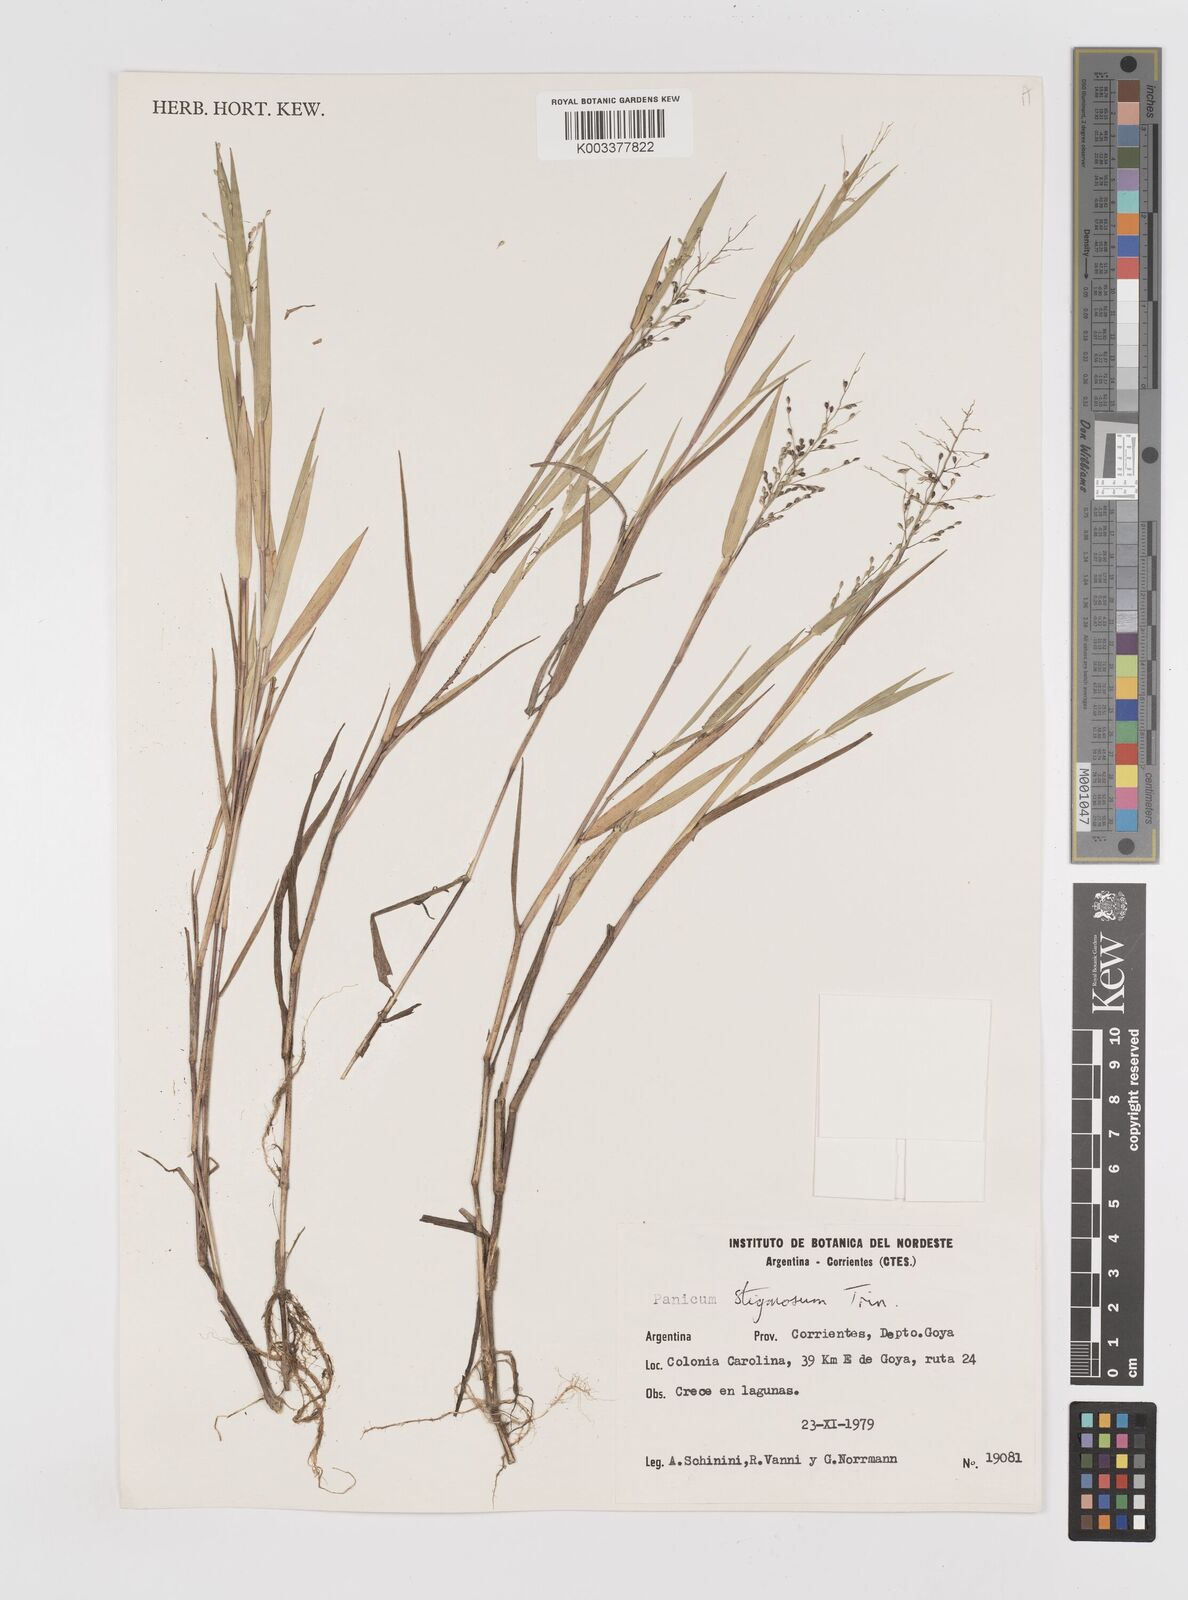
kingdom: Plantae
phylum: Tracheophyta
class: Liliopsida
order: Poales
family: Poaceae
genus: Dichanthelium
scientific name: Dichanthelium sabulorum
